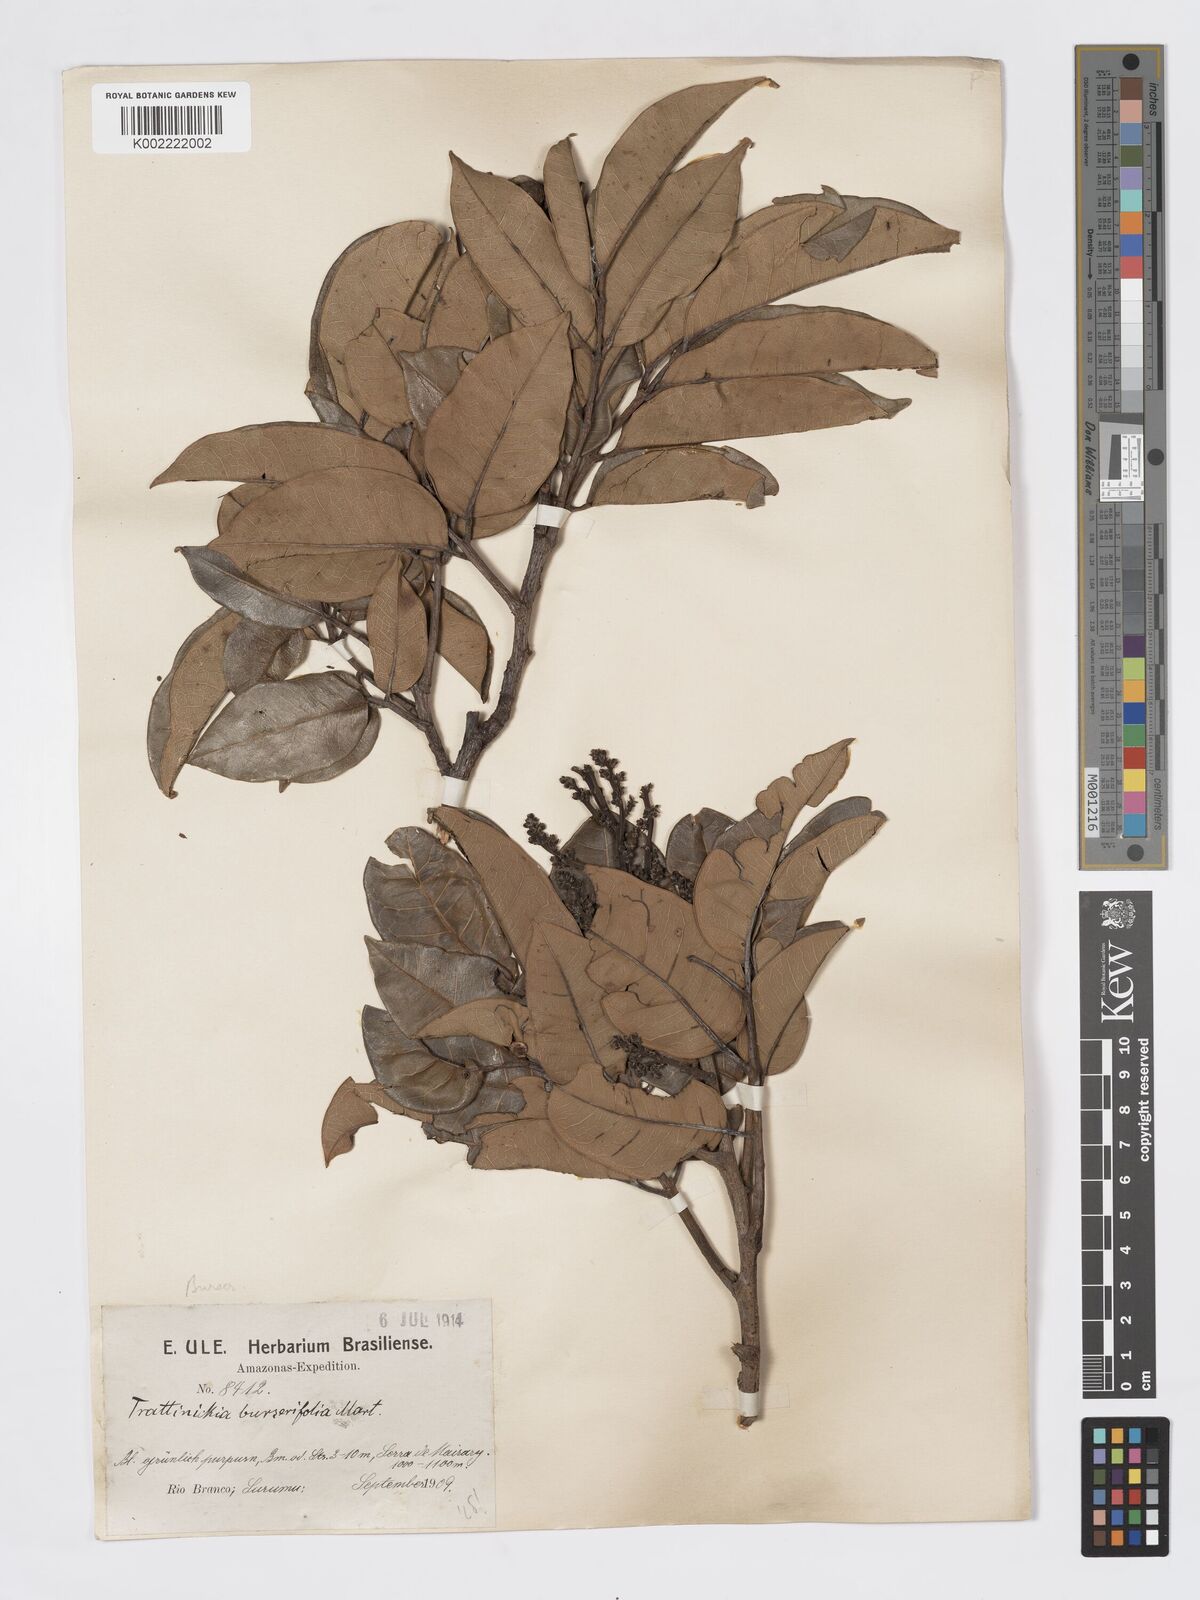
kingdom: Plantae
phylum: Tracheophyta
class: Magnoliopsida
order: Sapindales
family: Burseraceae
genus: Trattinnickia
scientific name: Trattinnickia burserifolia
